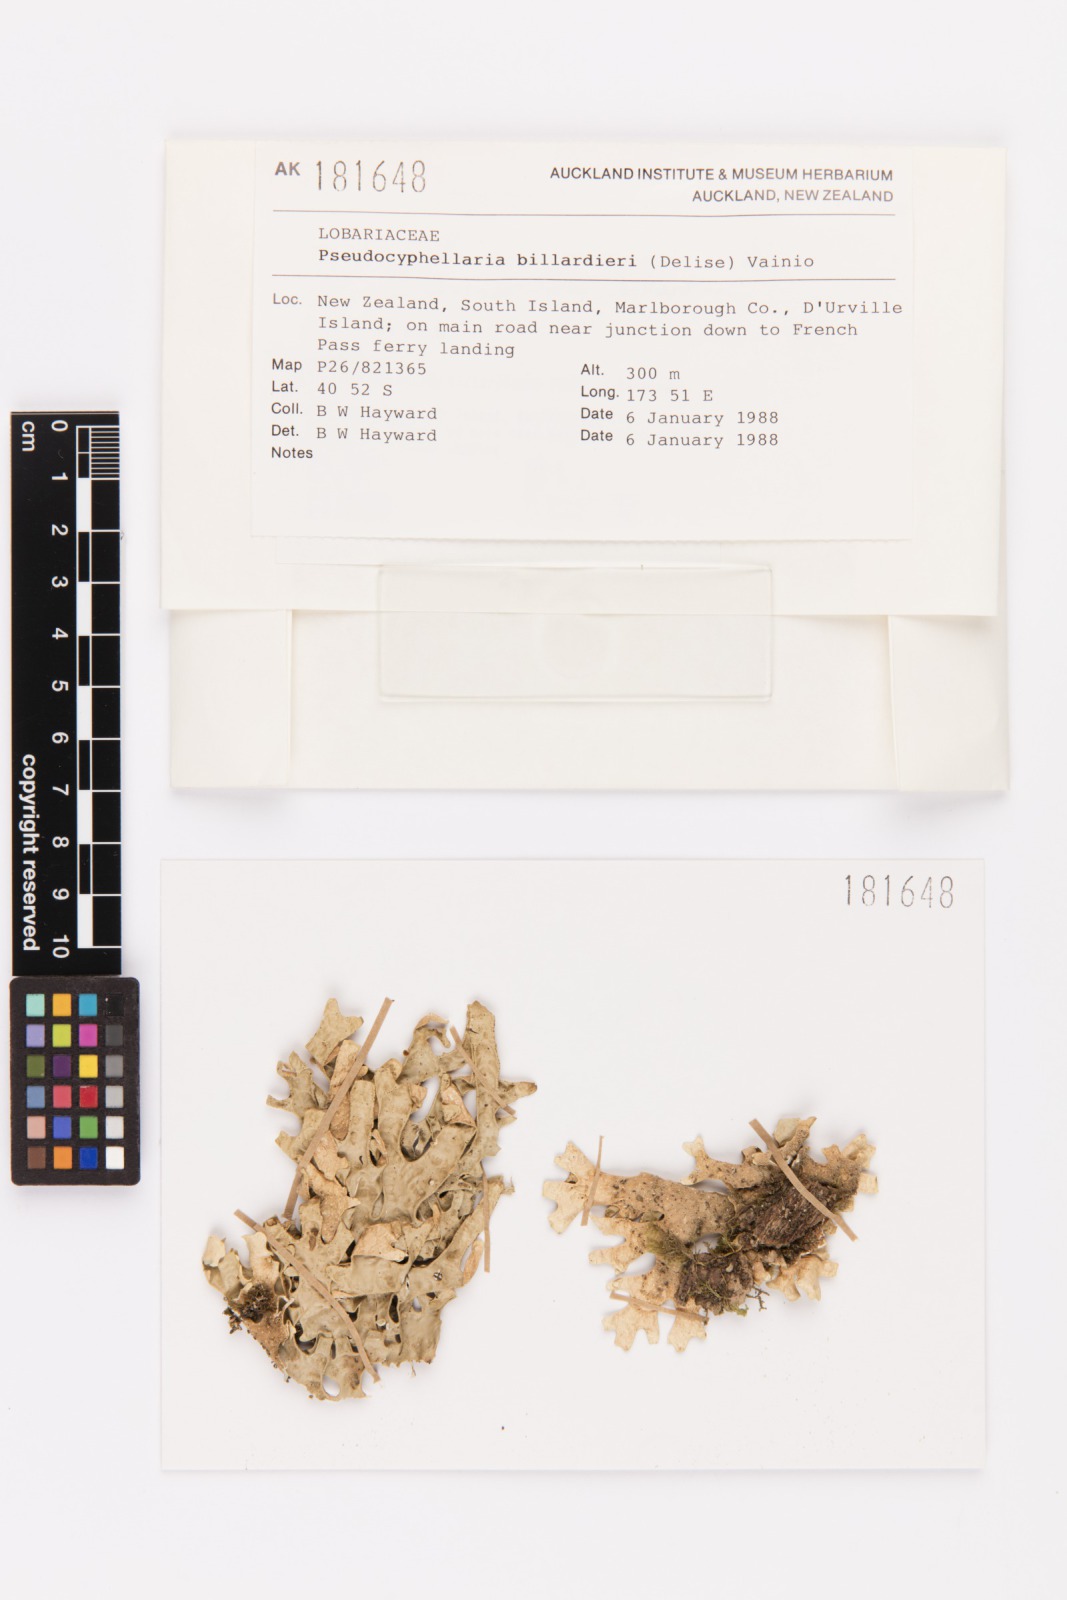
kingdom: Fungi
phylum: Ascomycota
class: Lecanoromycetes
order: Peltigerales
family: Lobariaceae
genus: Pseudocyphellaria
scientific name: Pseudocyphellaria billardierei
